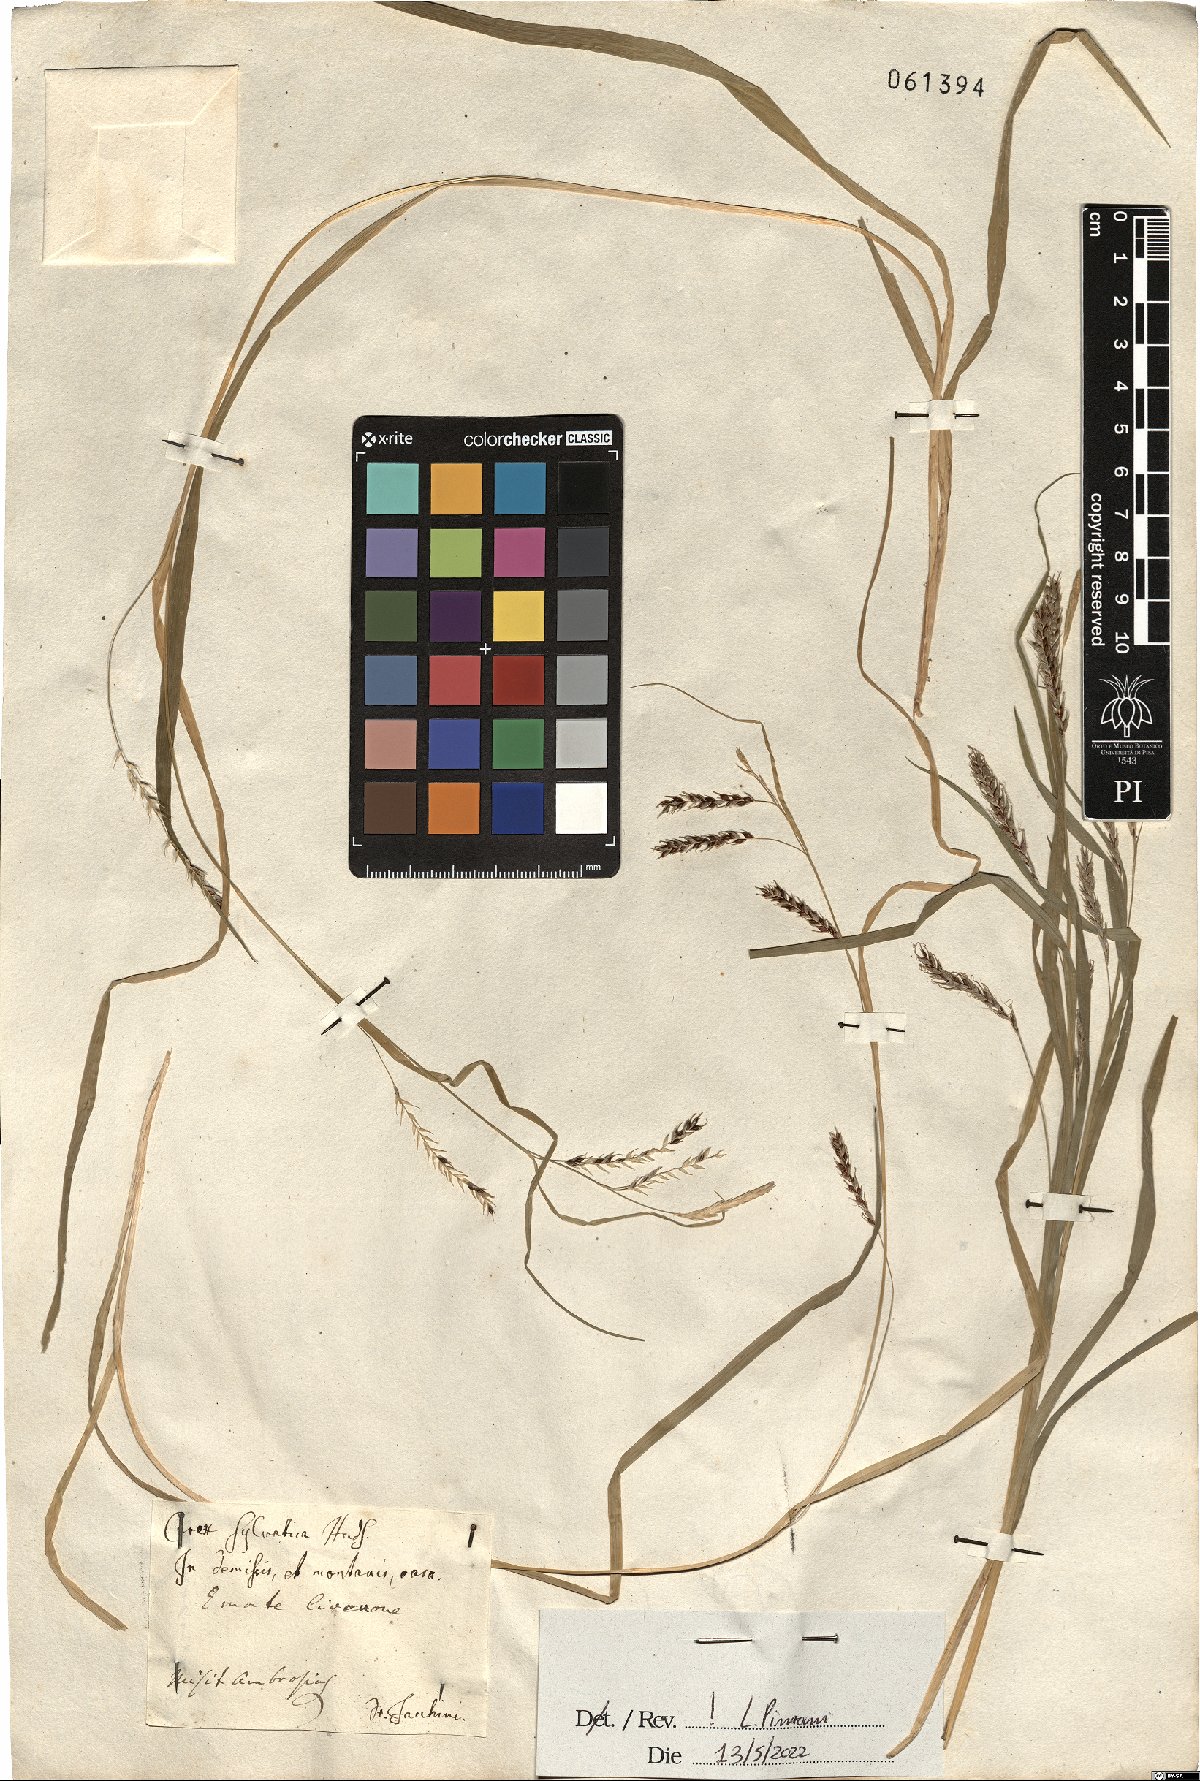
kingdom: Plantae
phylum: Tracheophyta
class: Liliopsida
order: Poales
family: Cyperaceae
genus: Carex
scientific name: Carex sylvatica
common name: Wood-sedge
